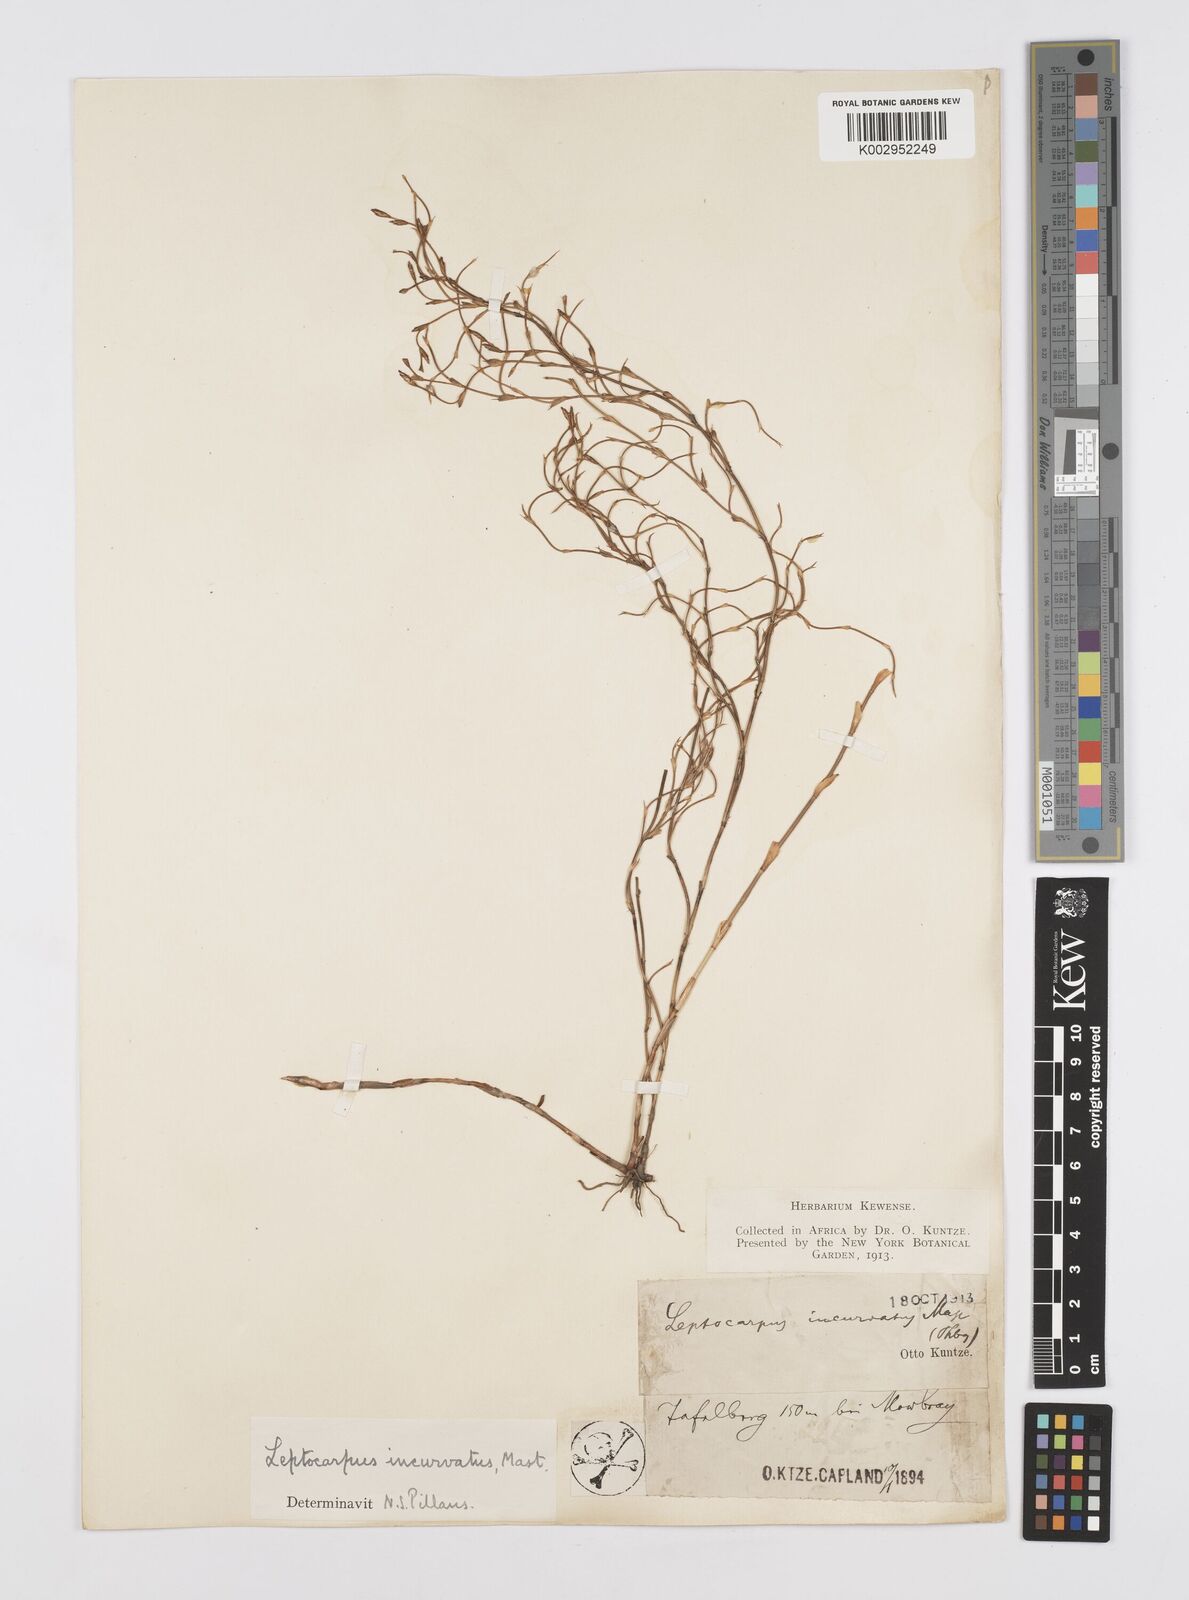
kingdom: Plantae
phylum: Tracheophyta
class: Liliopsida
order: Poales
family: Restionaceae
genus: Restio
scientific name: Restio vimineus
